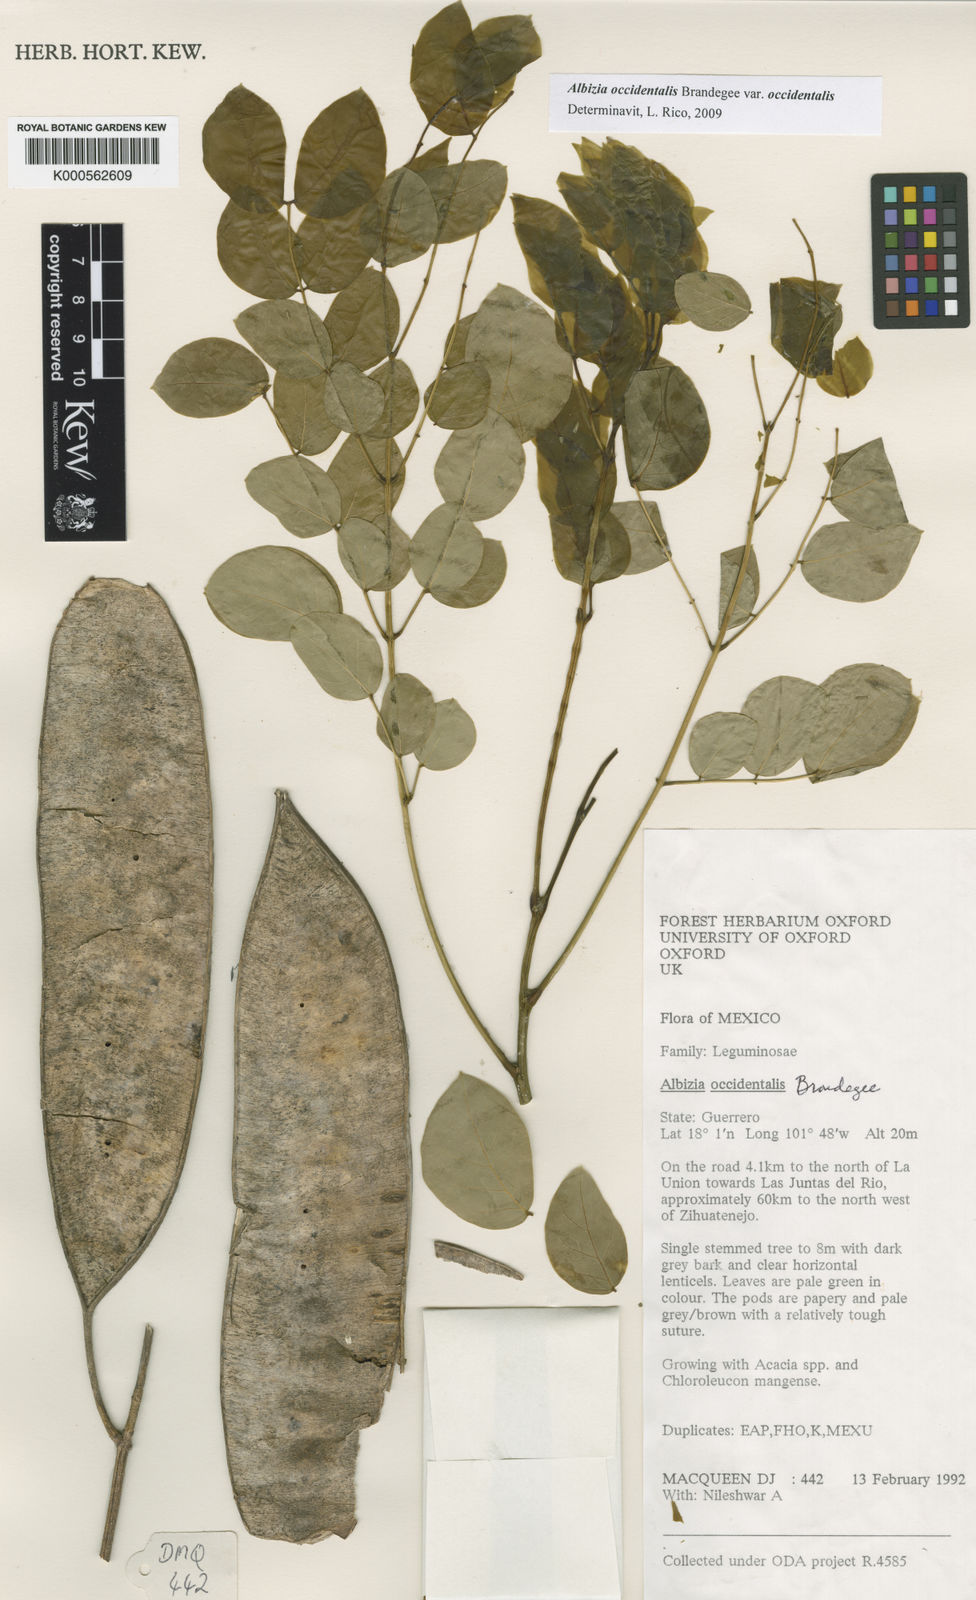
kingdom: Plantae
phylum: Tracheophyta
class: Magnoliopsida
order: Fabales
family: Fabaceae
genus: Albizia
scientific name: Albizia occidentalis
